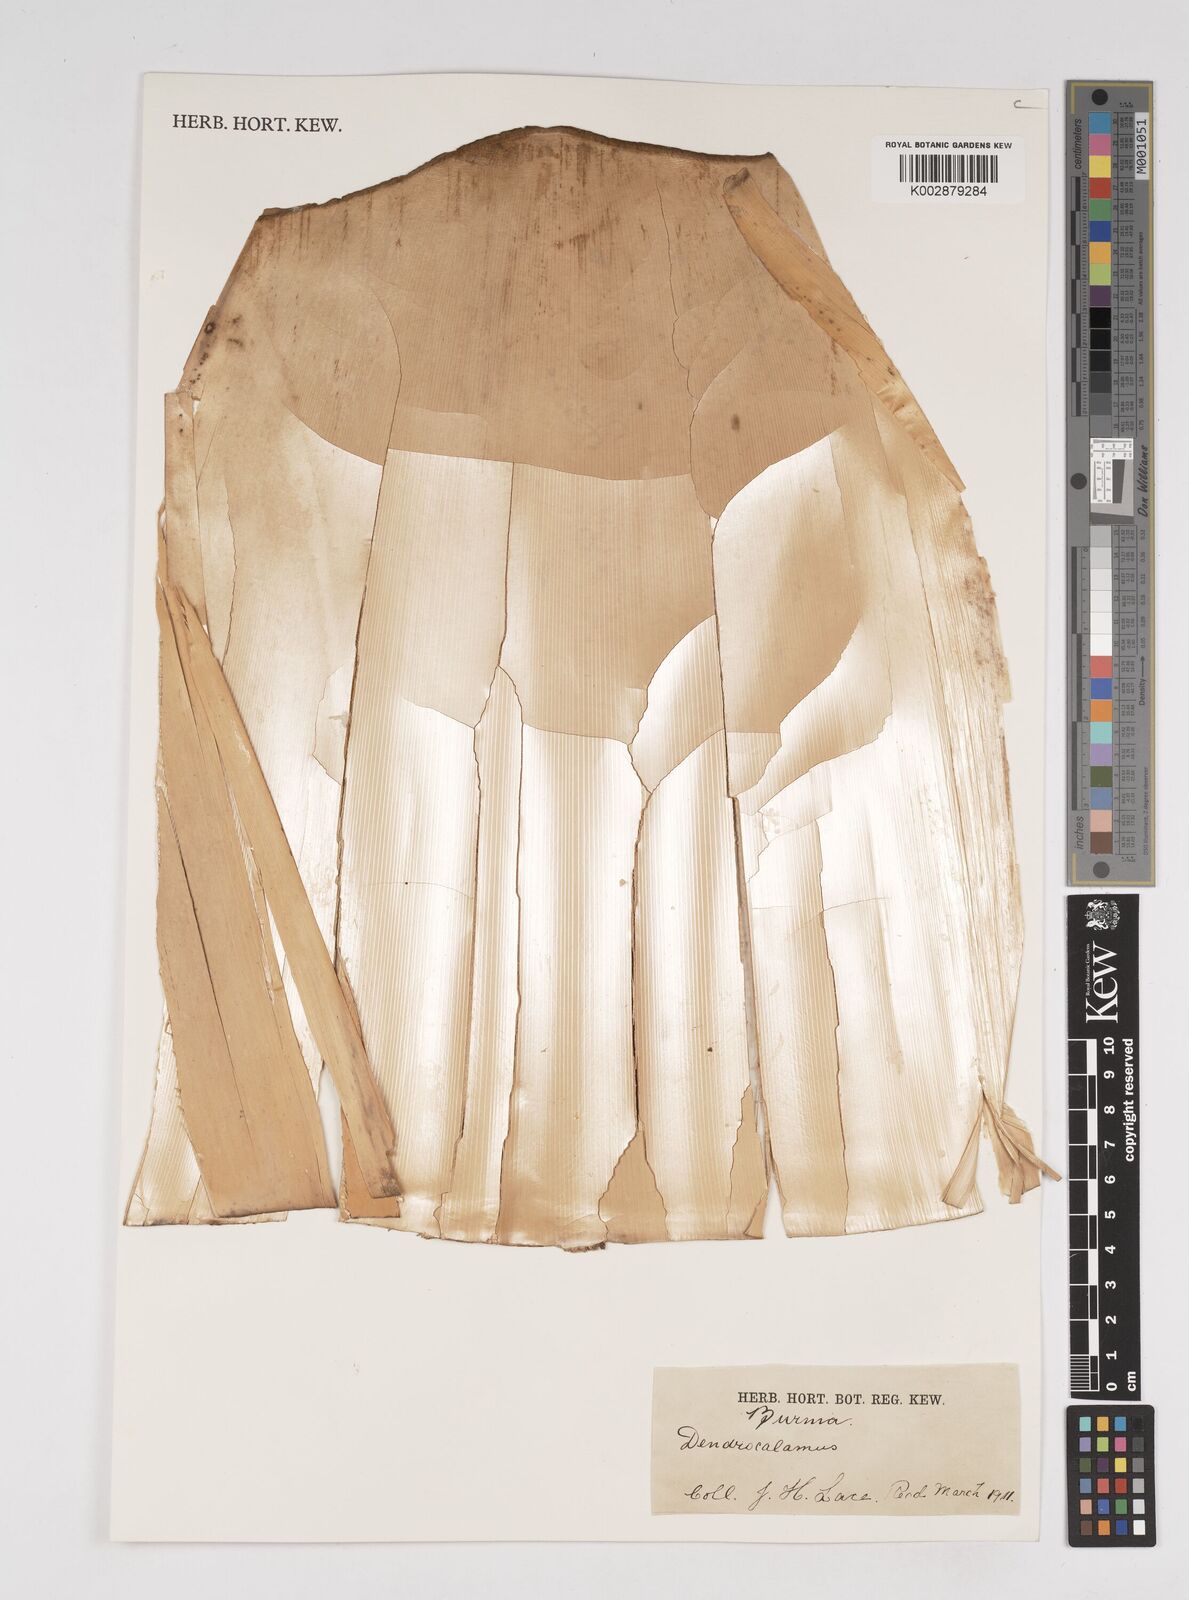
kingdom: Plantae
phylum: Tracheophyta
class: Liliopsida
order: Poales
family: Poaceae
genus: Dendrocalamus
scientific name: Dendrocalamus
